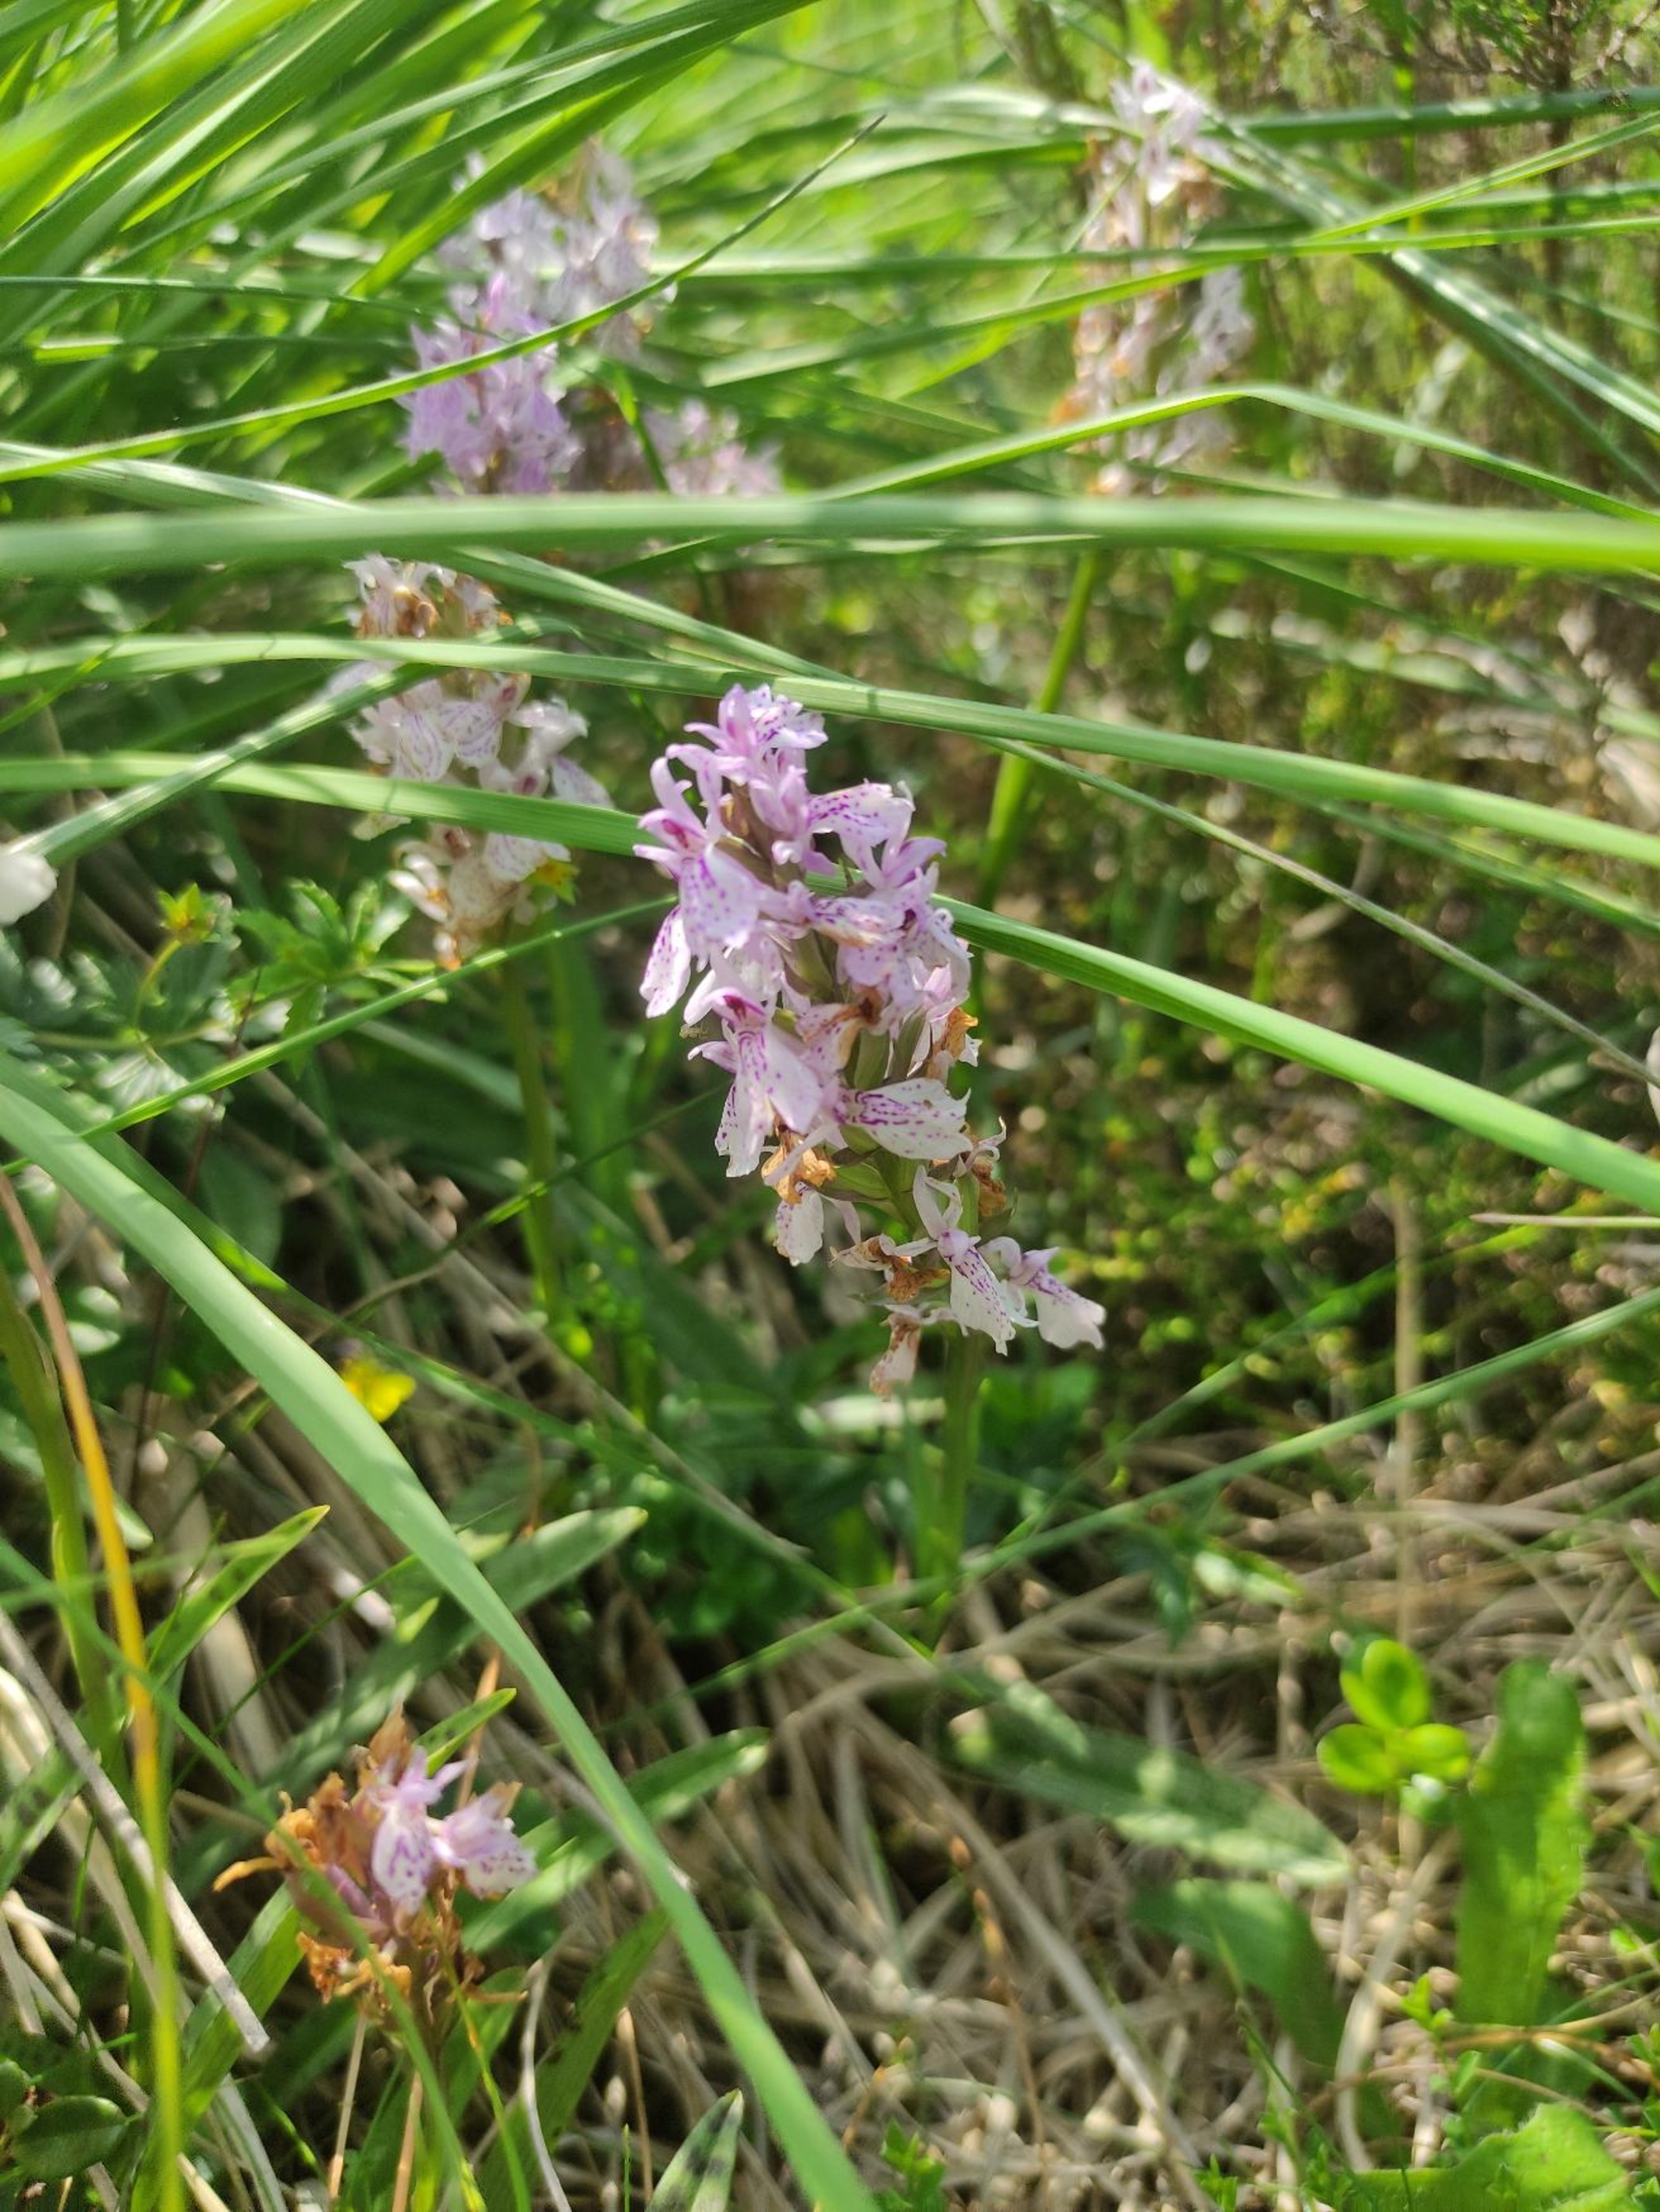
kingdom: Plantae
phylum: Tracheophyta
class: Liliopsida
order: Asparagales
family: Orchidaceae
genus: Dactylorhiza
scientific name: Dactylorhiza maculata
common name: Plettet gøgeurt
